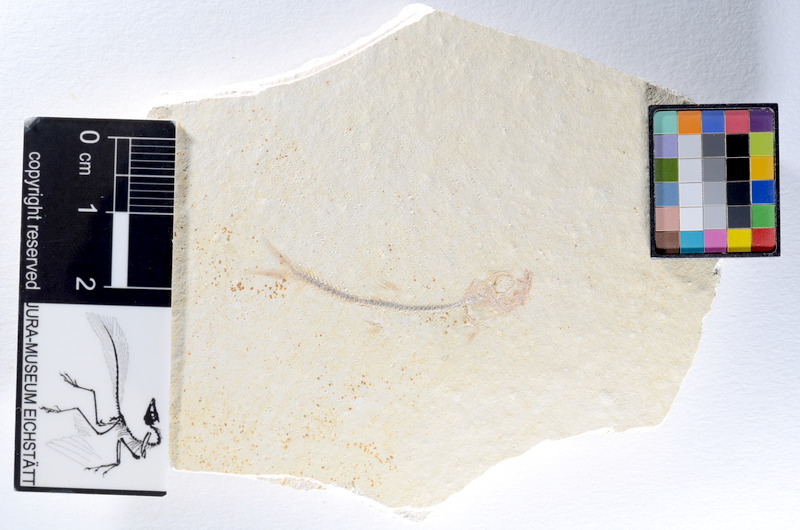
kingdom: Animalia
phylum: Chordata
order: Salmoniformes
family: Orthogonikleithridae
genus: Orthogonikleithrus
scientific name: Orthogonikleithrus hoelli
